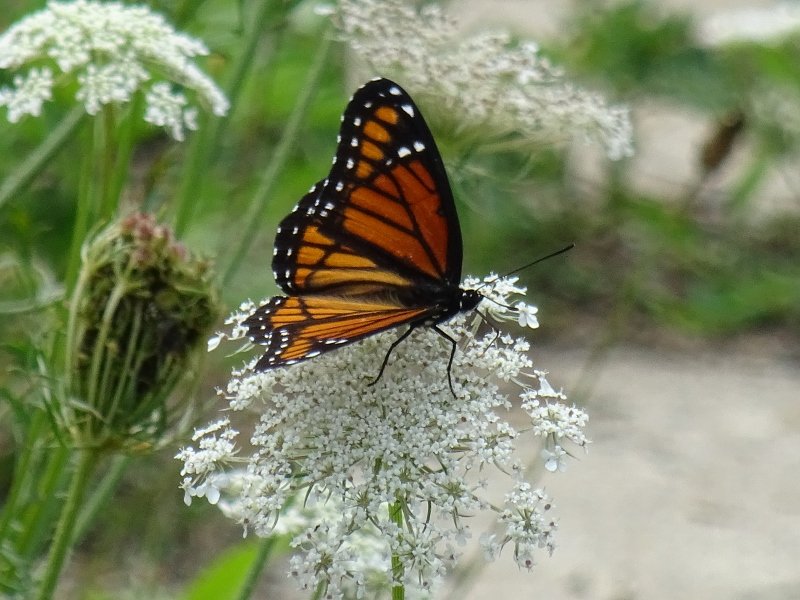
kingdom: Animalia
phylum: Arthropoda
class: Insecta
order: Lepidoptera
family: Nymphalidae
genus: Limenitis
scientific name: Limenitis archippus
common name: Viceroy
